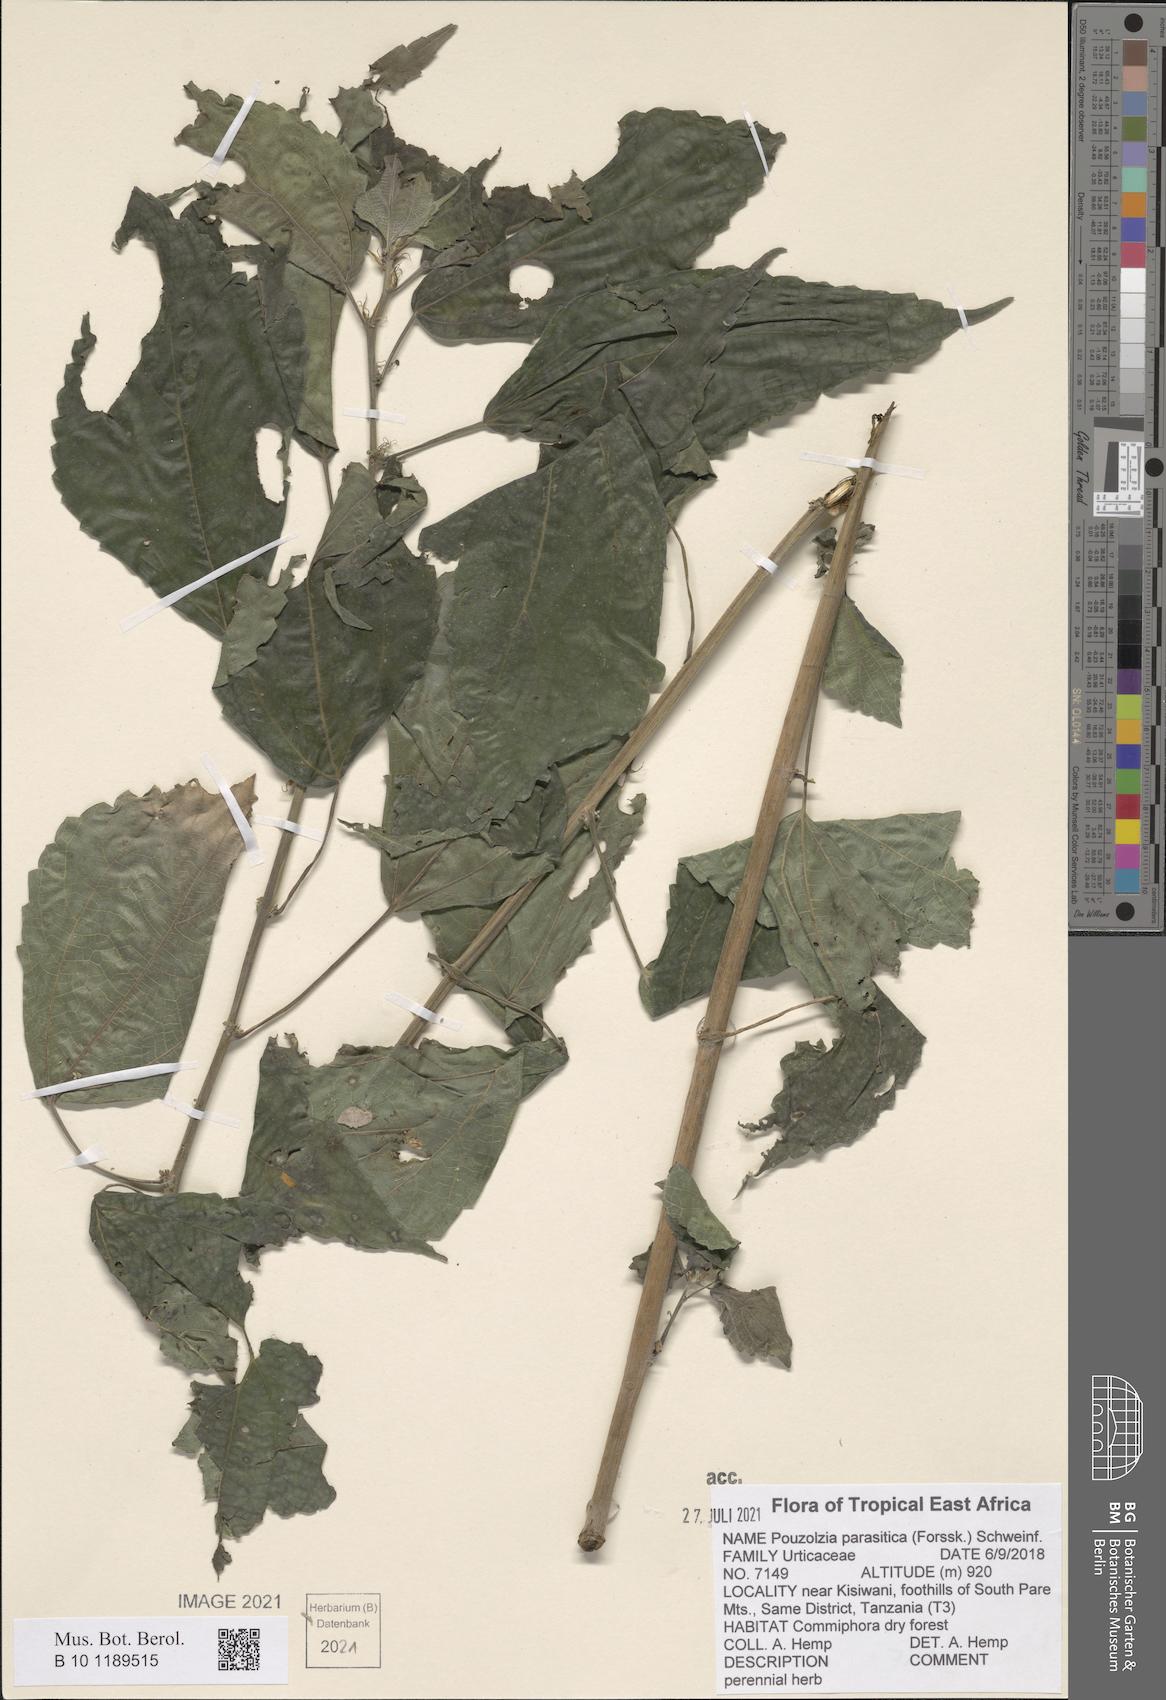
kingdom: Plantae
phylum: Tracheophyta
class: Magnoliopsida
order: Rosales
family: Urticaceae
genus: Pouzolzia
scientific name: Pouzolzia parasitica
